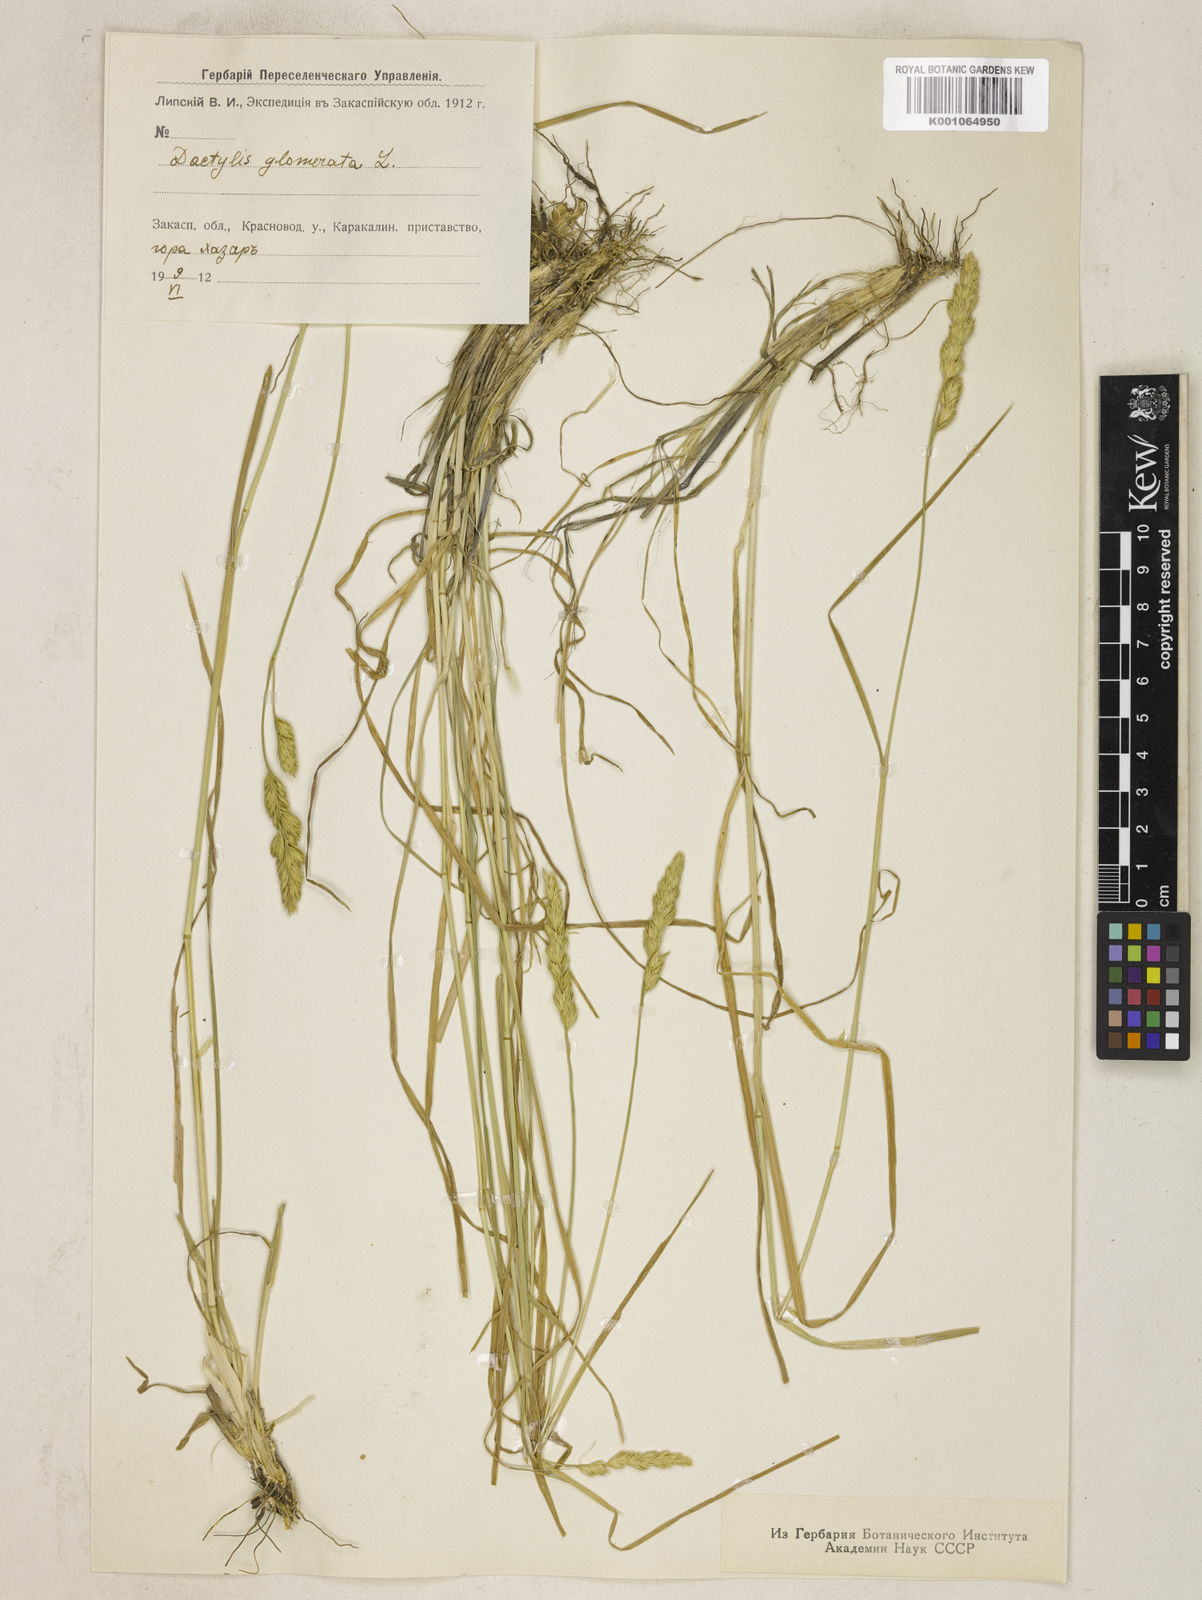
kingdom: Plantae
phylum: Tracheophyta
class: Liliopsida
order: Poales
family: Poaceae
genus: Dactylis
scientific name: Dactylis glomerata
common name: Orchardgrass
